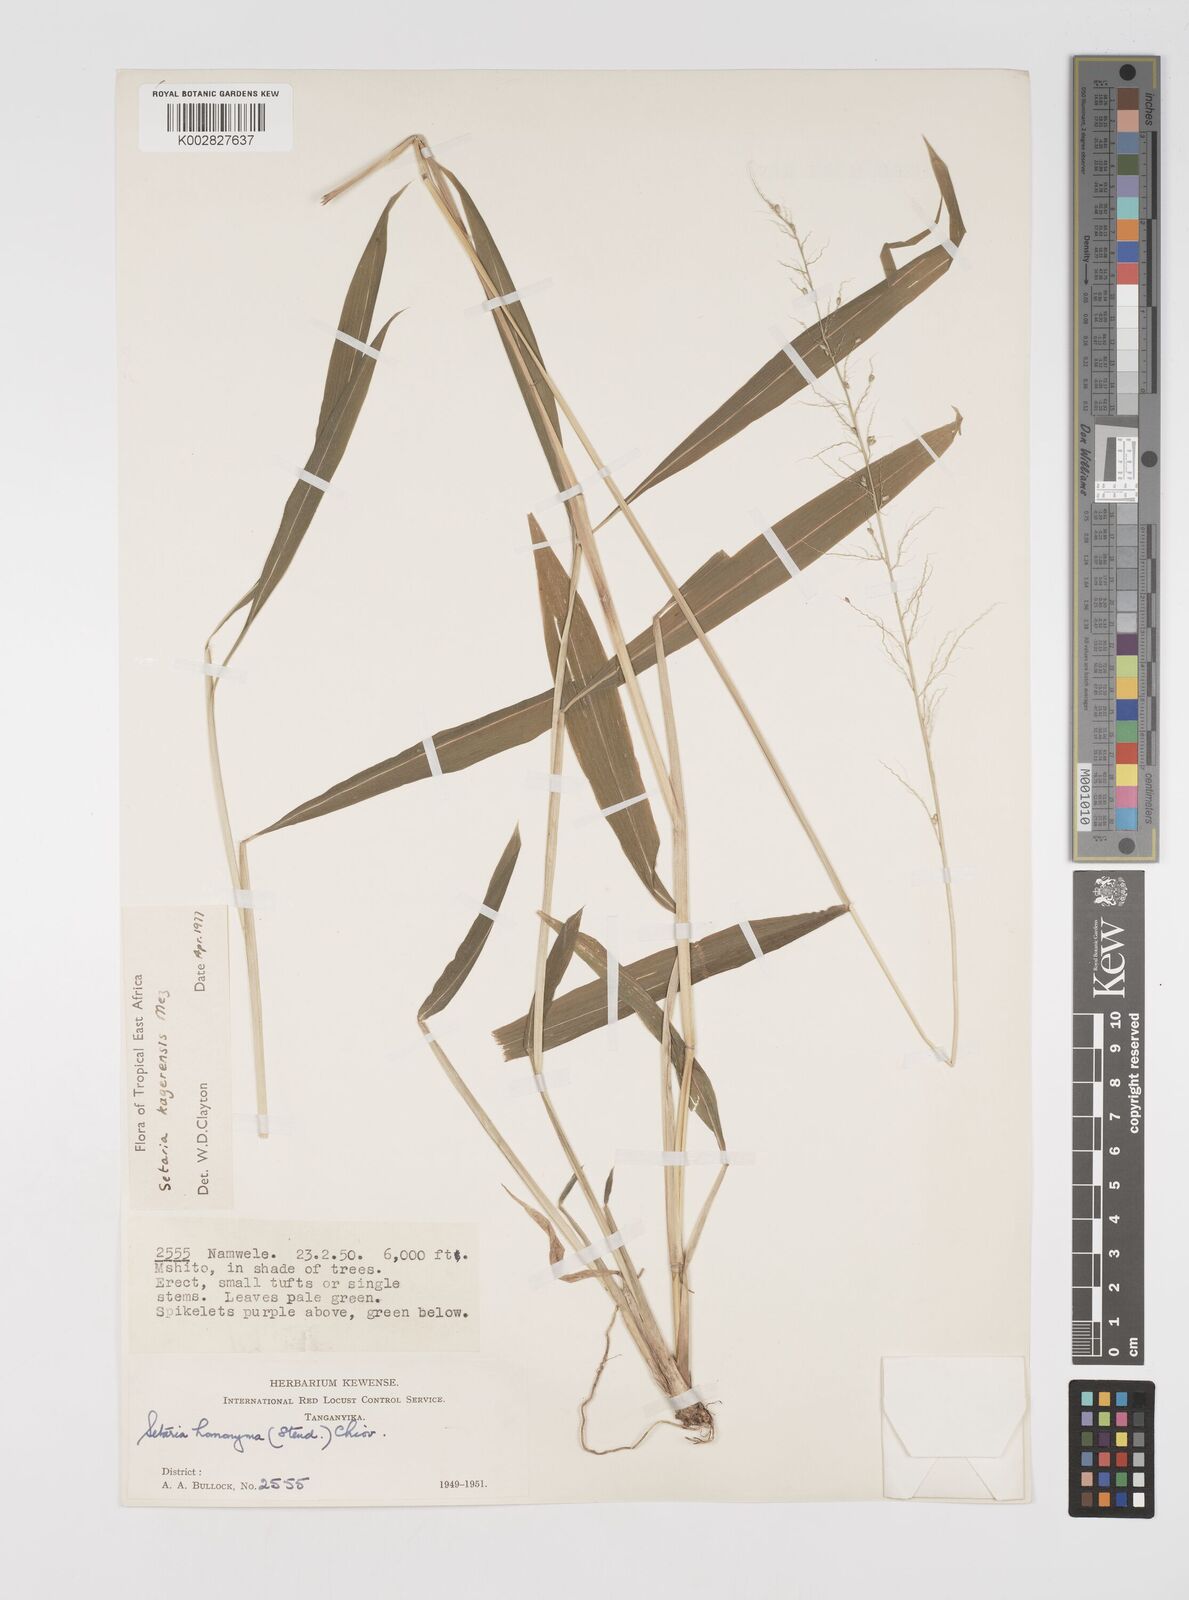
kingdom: Plantae
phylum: Tracheophyta
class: Liliopsida
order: Poales
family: Poaceae
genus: Setaria
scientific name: Setaria kagerensis
